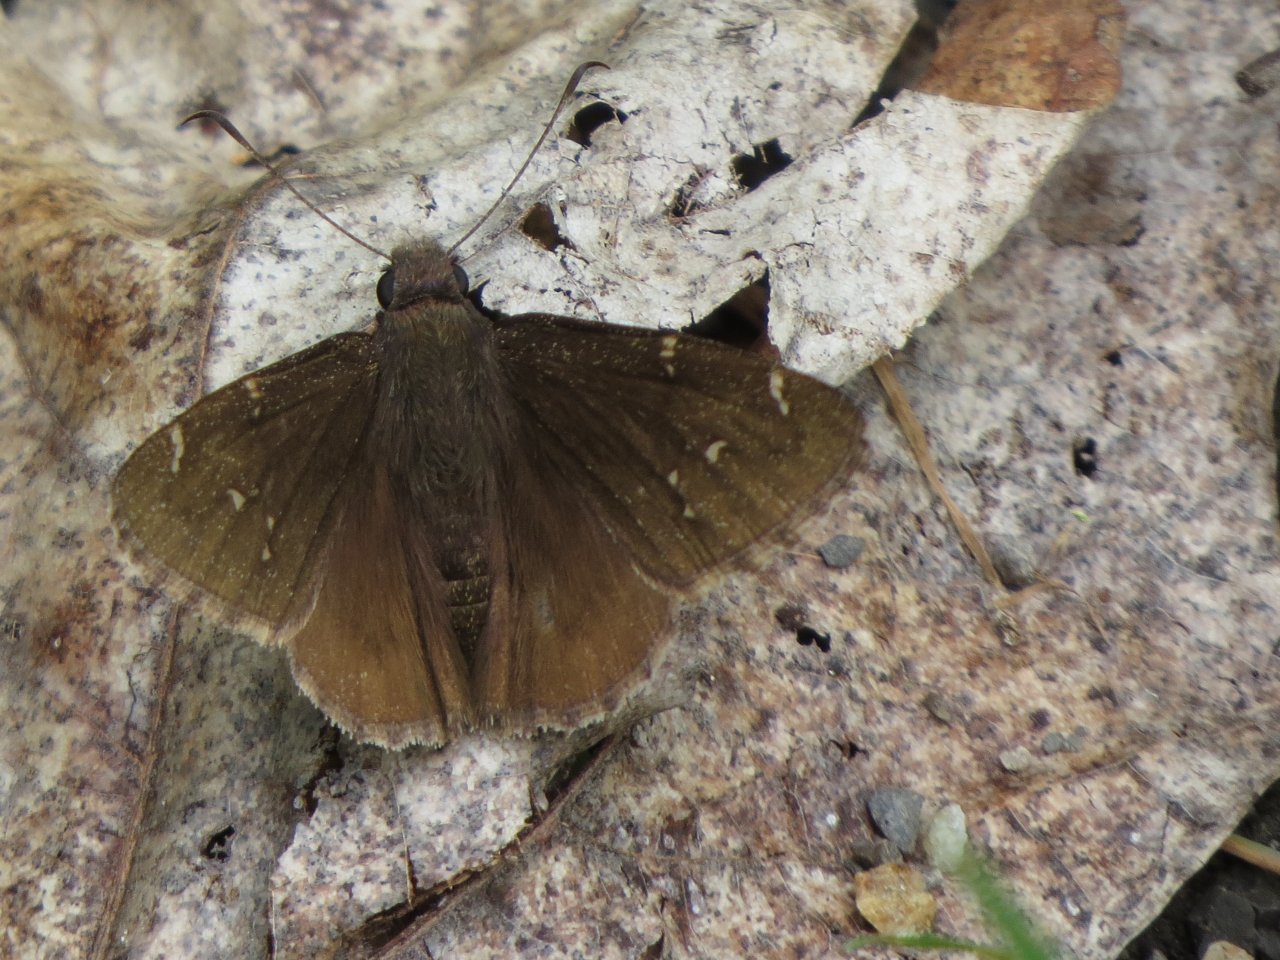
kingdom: Animalia
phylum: Arthropoda
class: Insecta
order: Lepidoptera
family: Hesperiidae
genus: Autochton
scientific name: Autochton
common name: Northern Cloudywing
